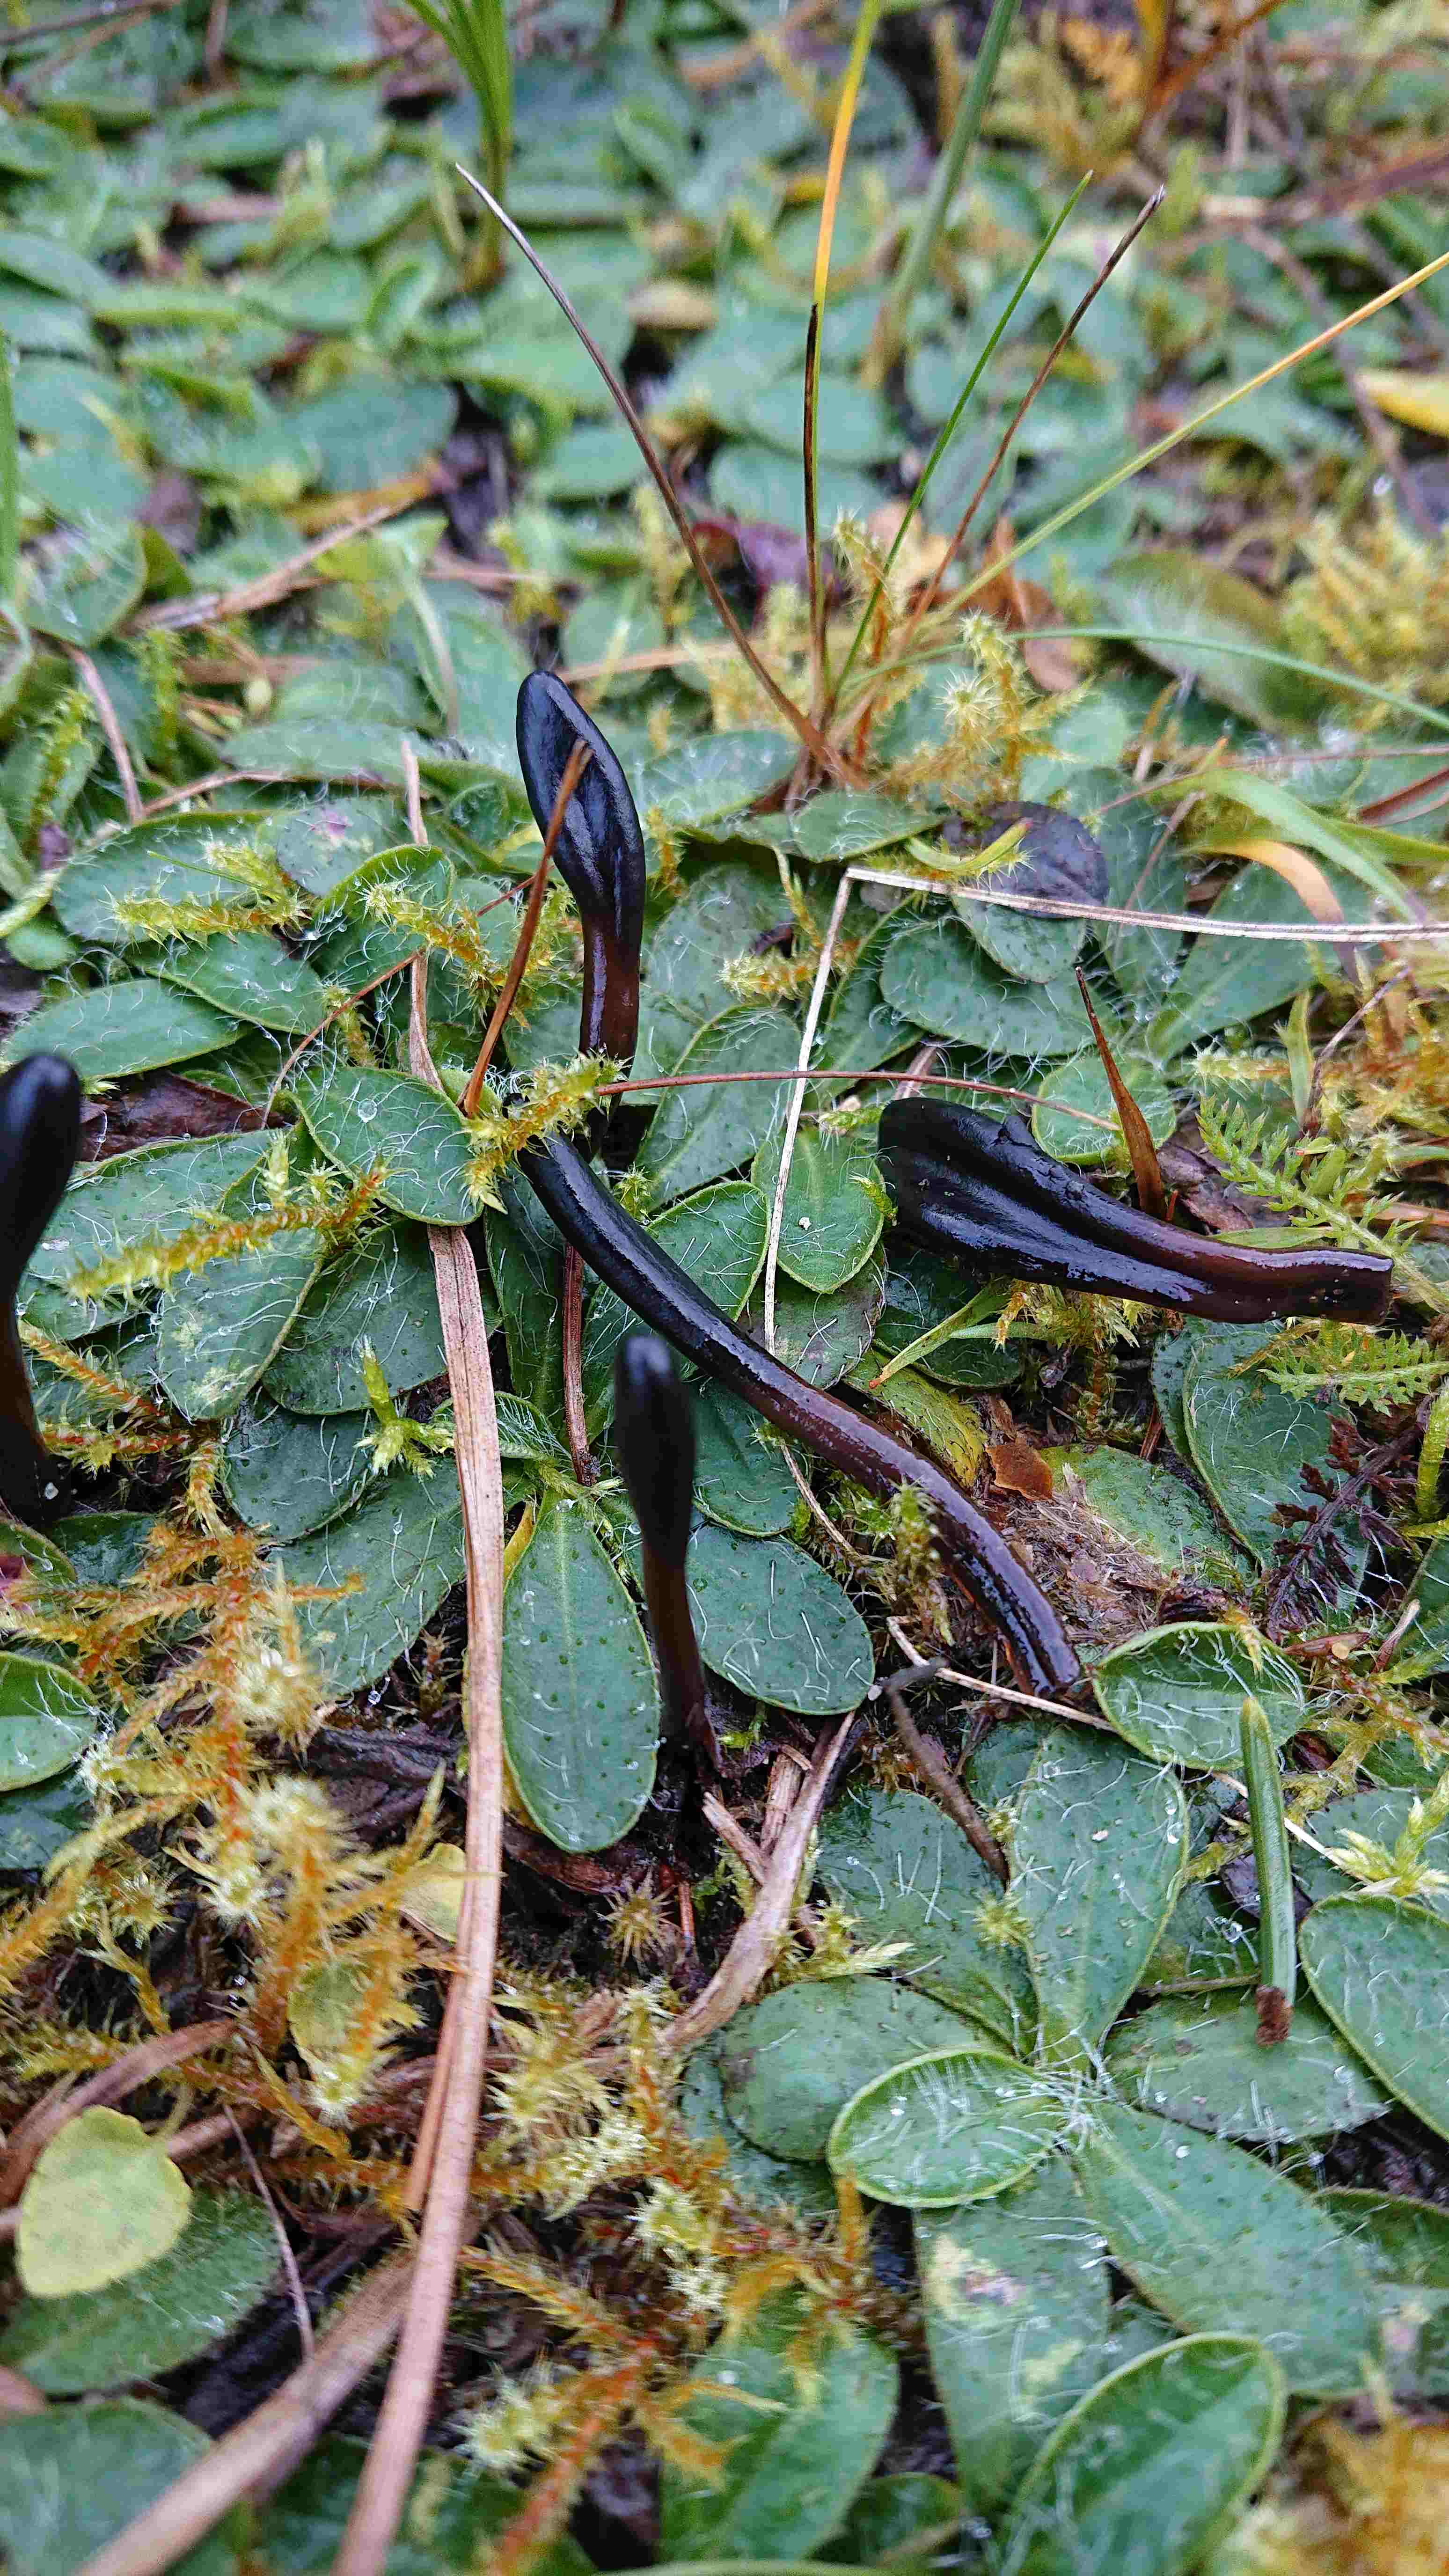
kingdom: Fungi
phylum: Ascomycota
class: Geoglossomycetes
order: Geoglossales
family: Geoglossaceae
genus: Glutinoglossum
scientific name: Glutinoglossum
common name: jordtunge
